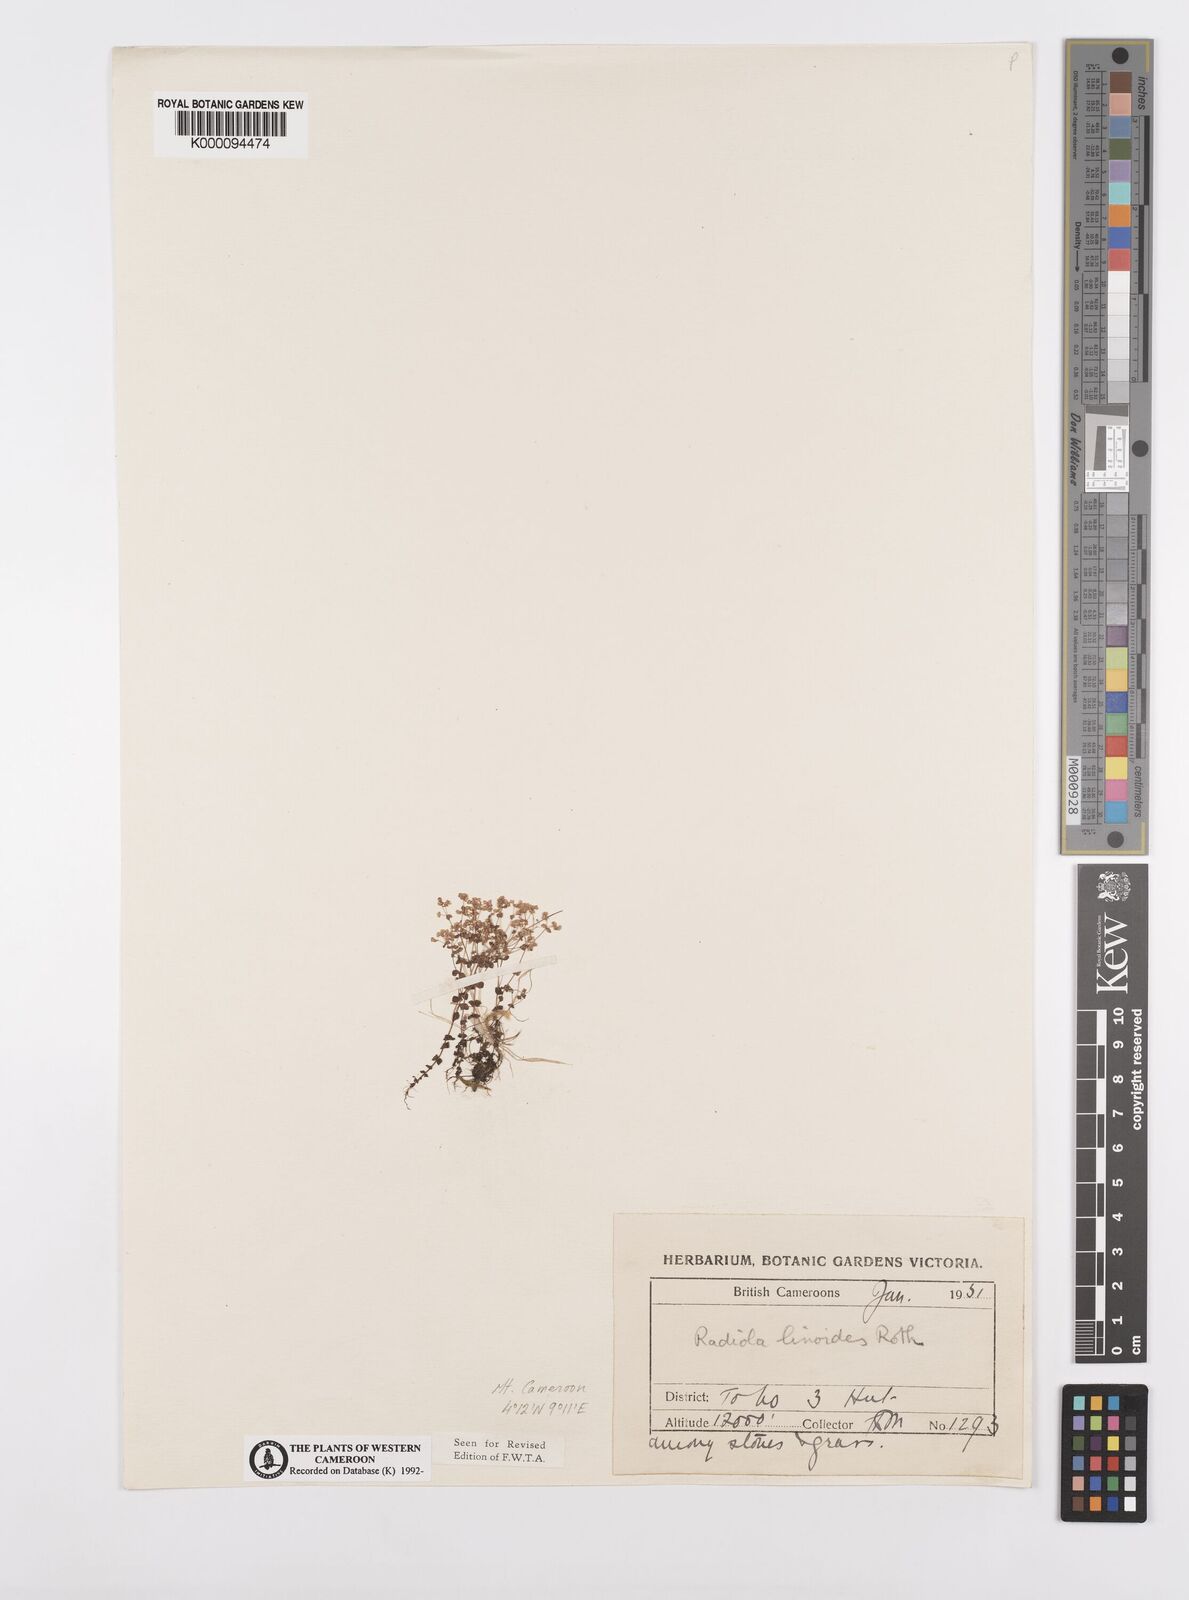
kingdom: Plantae
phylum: Tracheophyta
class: Magnoliopsida
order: Malpighiales
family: Linaceae
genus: Radiola
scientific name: Radiola linoides
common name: Allseed
